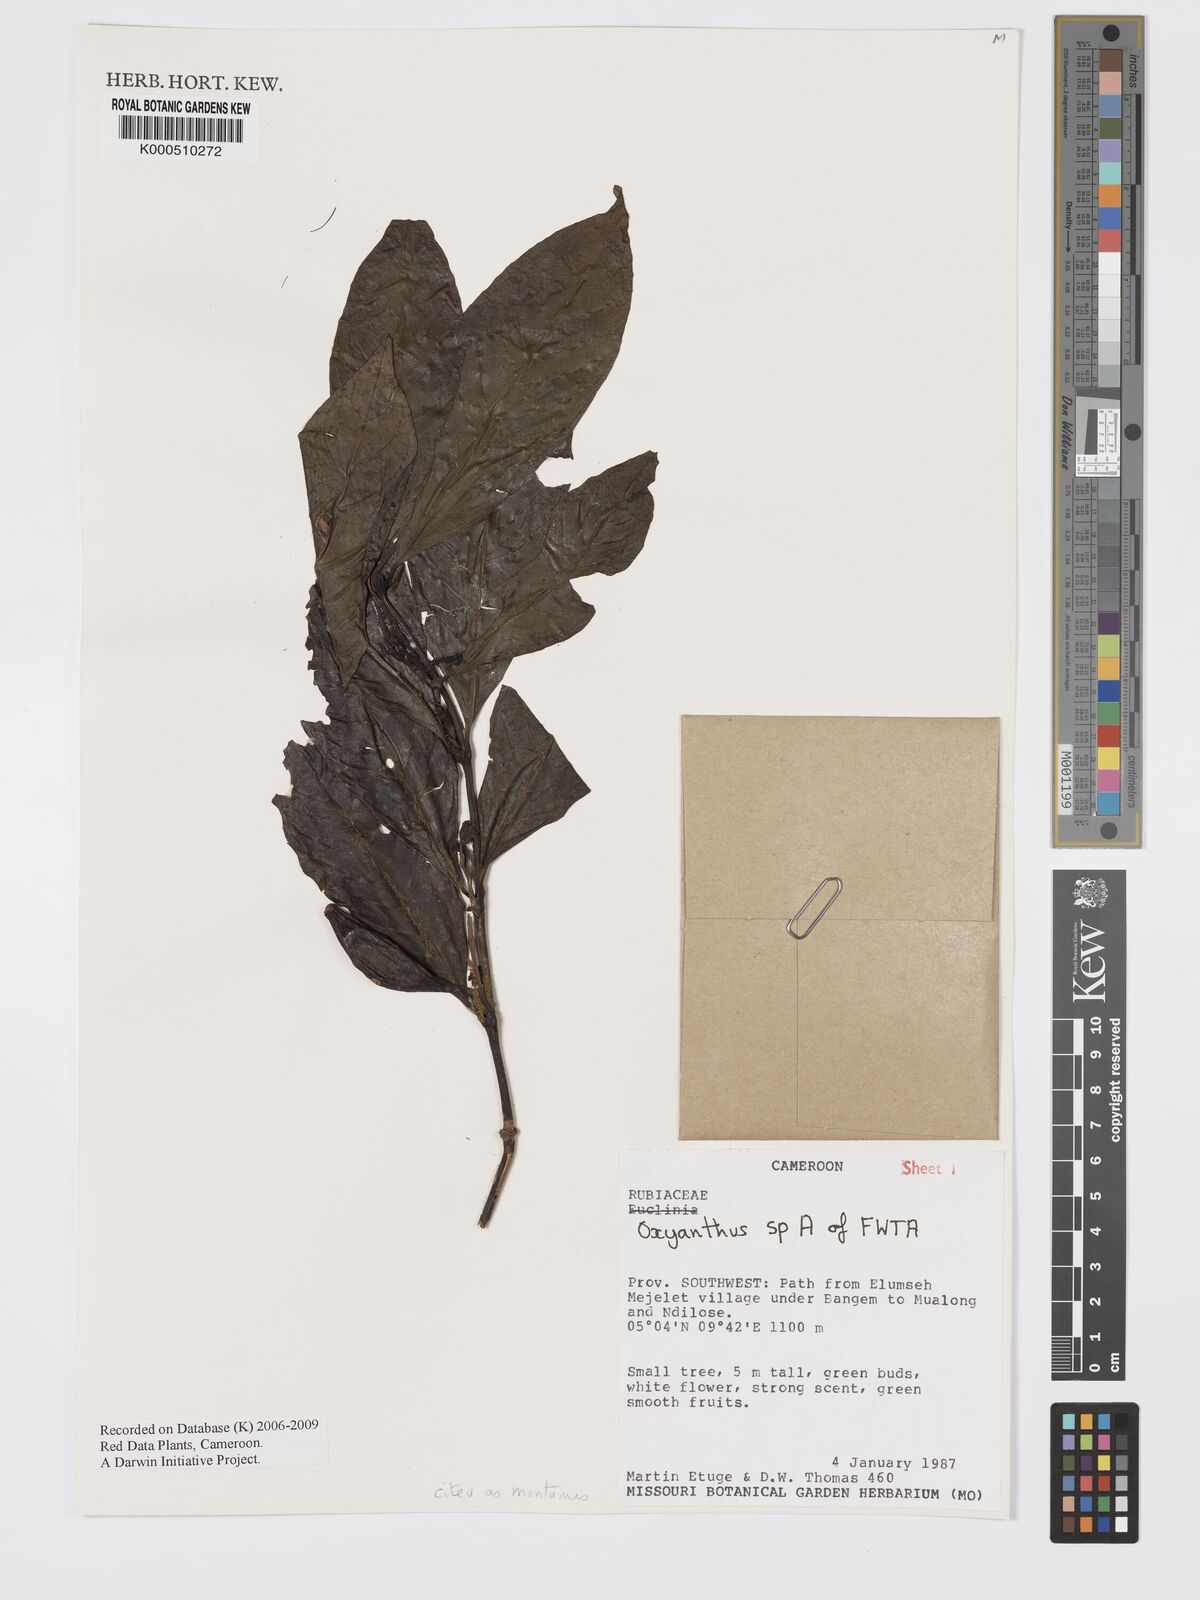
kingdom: Plantae
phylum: Tracheophyta
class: Magnoliopsida
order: Gentianales
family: Rubiaceae
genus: Oxyanthus
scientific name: Oxyanthus
